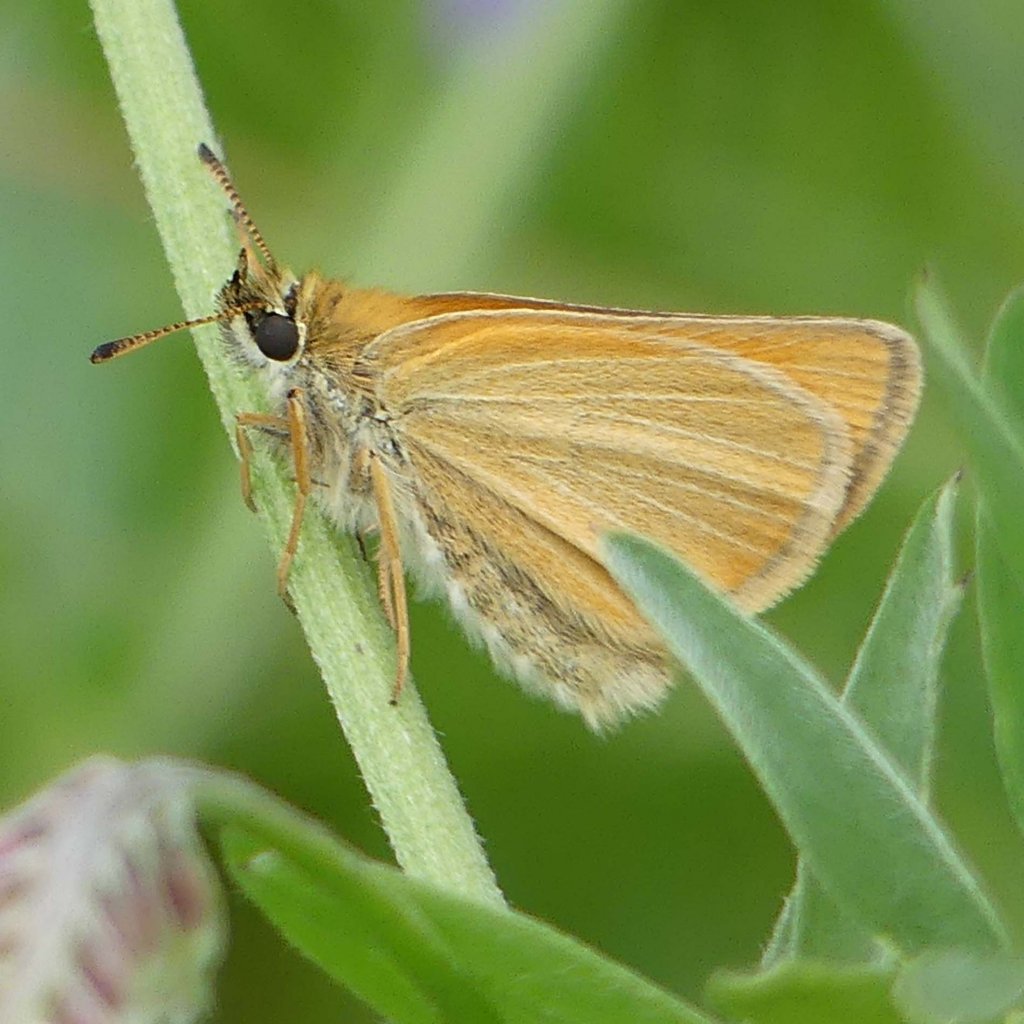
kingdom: Animalia
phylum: Arthropoda
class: Insecta
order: Lepidoptera
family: Hesperiidae
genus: Thymelicus
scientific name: Thymelicus lineola
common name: European Skipper
